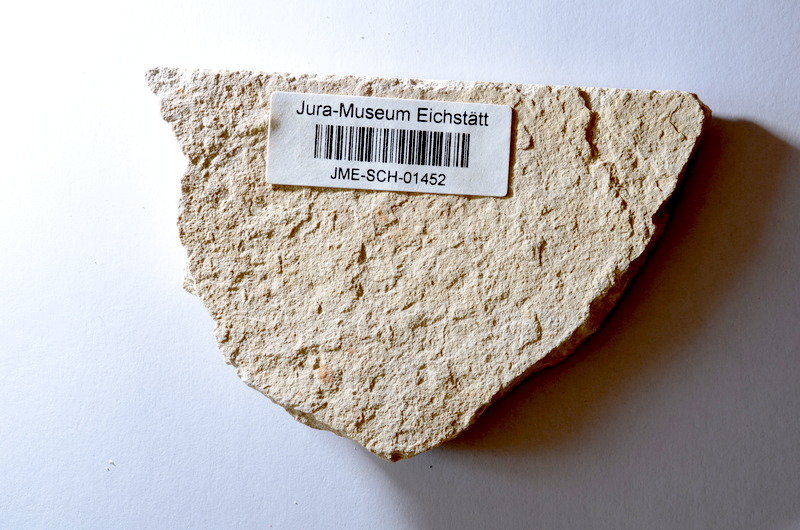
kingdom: Animalia
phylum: Chordata
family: Ascalaboidae
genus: Tharsis
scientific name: Tharsis dubius
